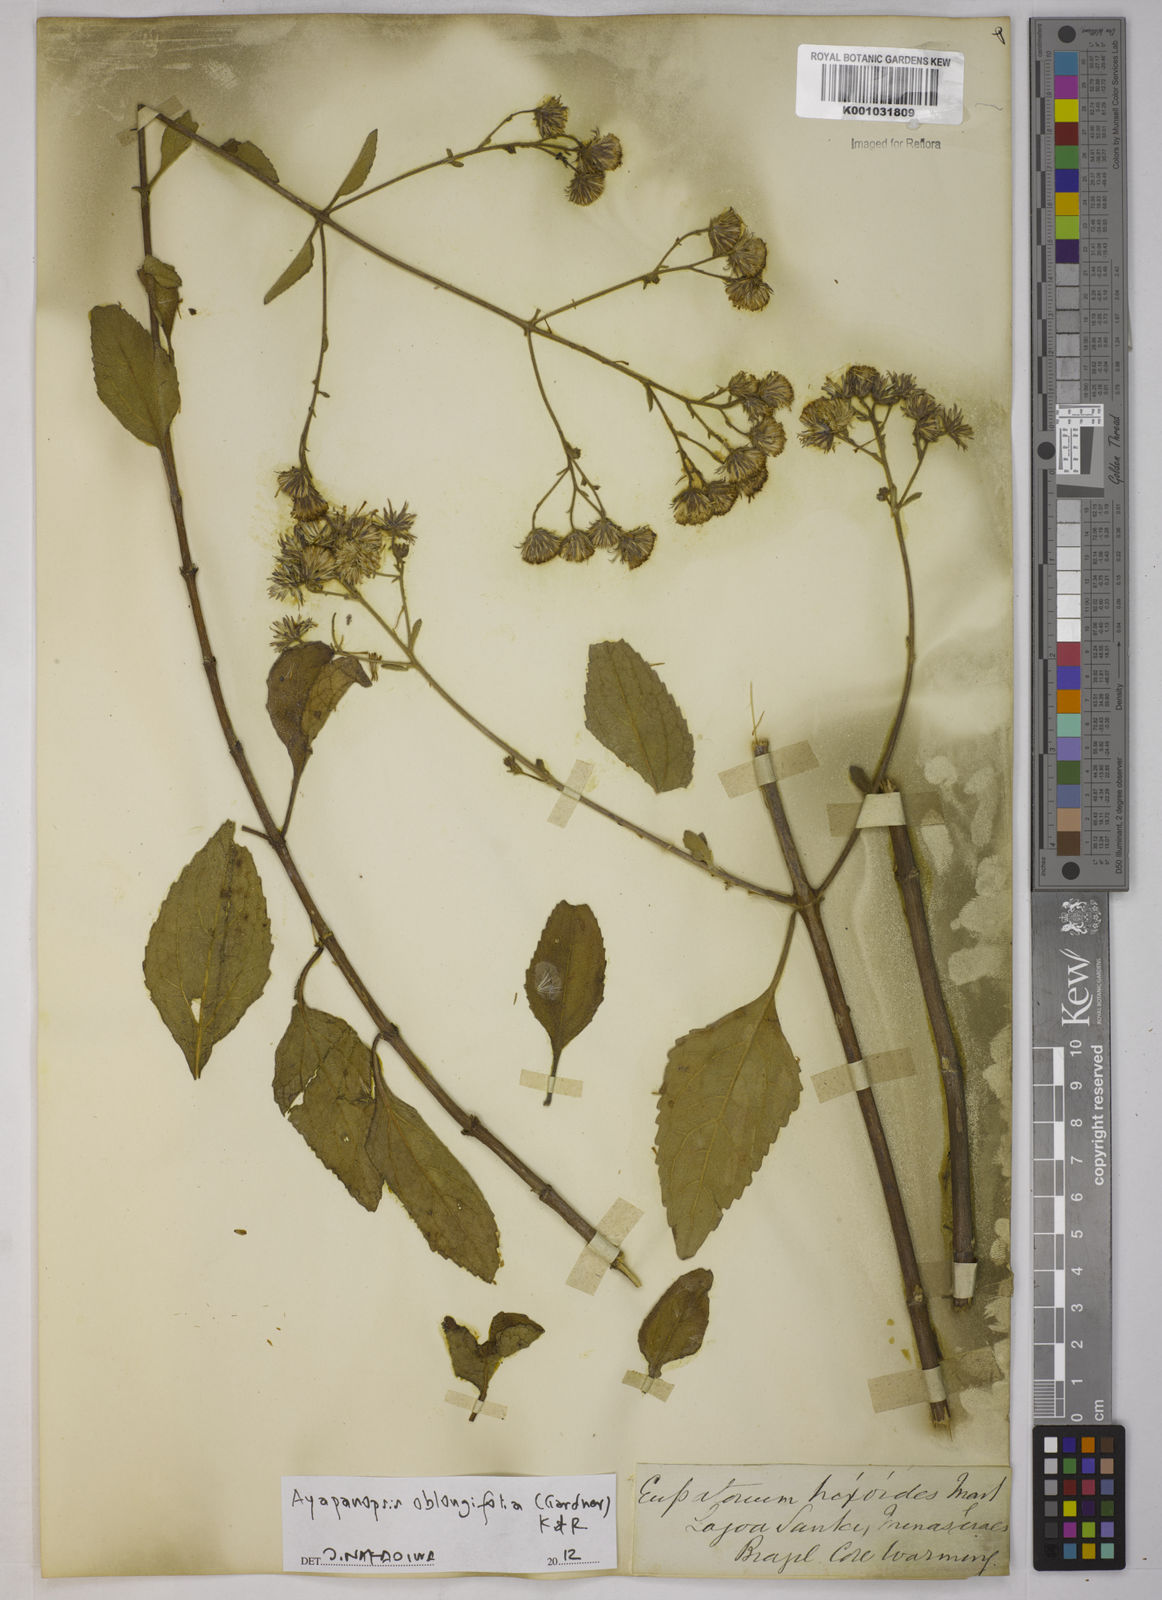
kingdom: Plantae
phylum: Tracheophyta
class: Magnoliopsida
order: Asterales
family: Asteraceae
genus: Ayapanopsis
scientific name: Ayapanopsis oblongifolia
